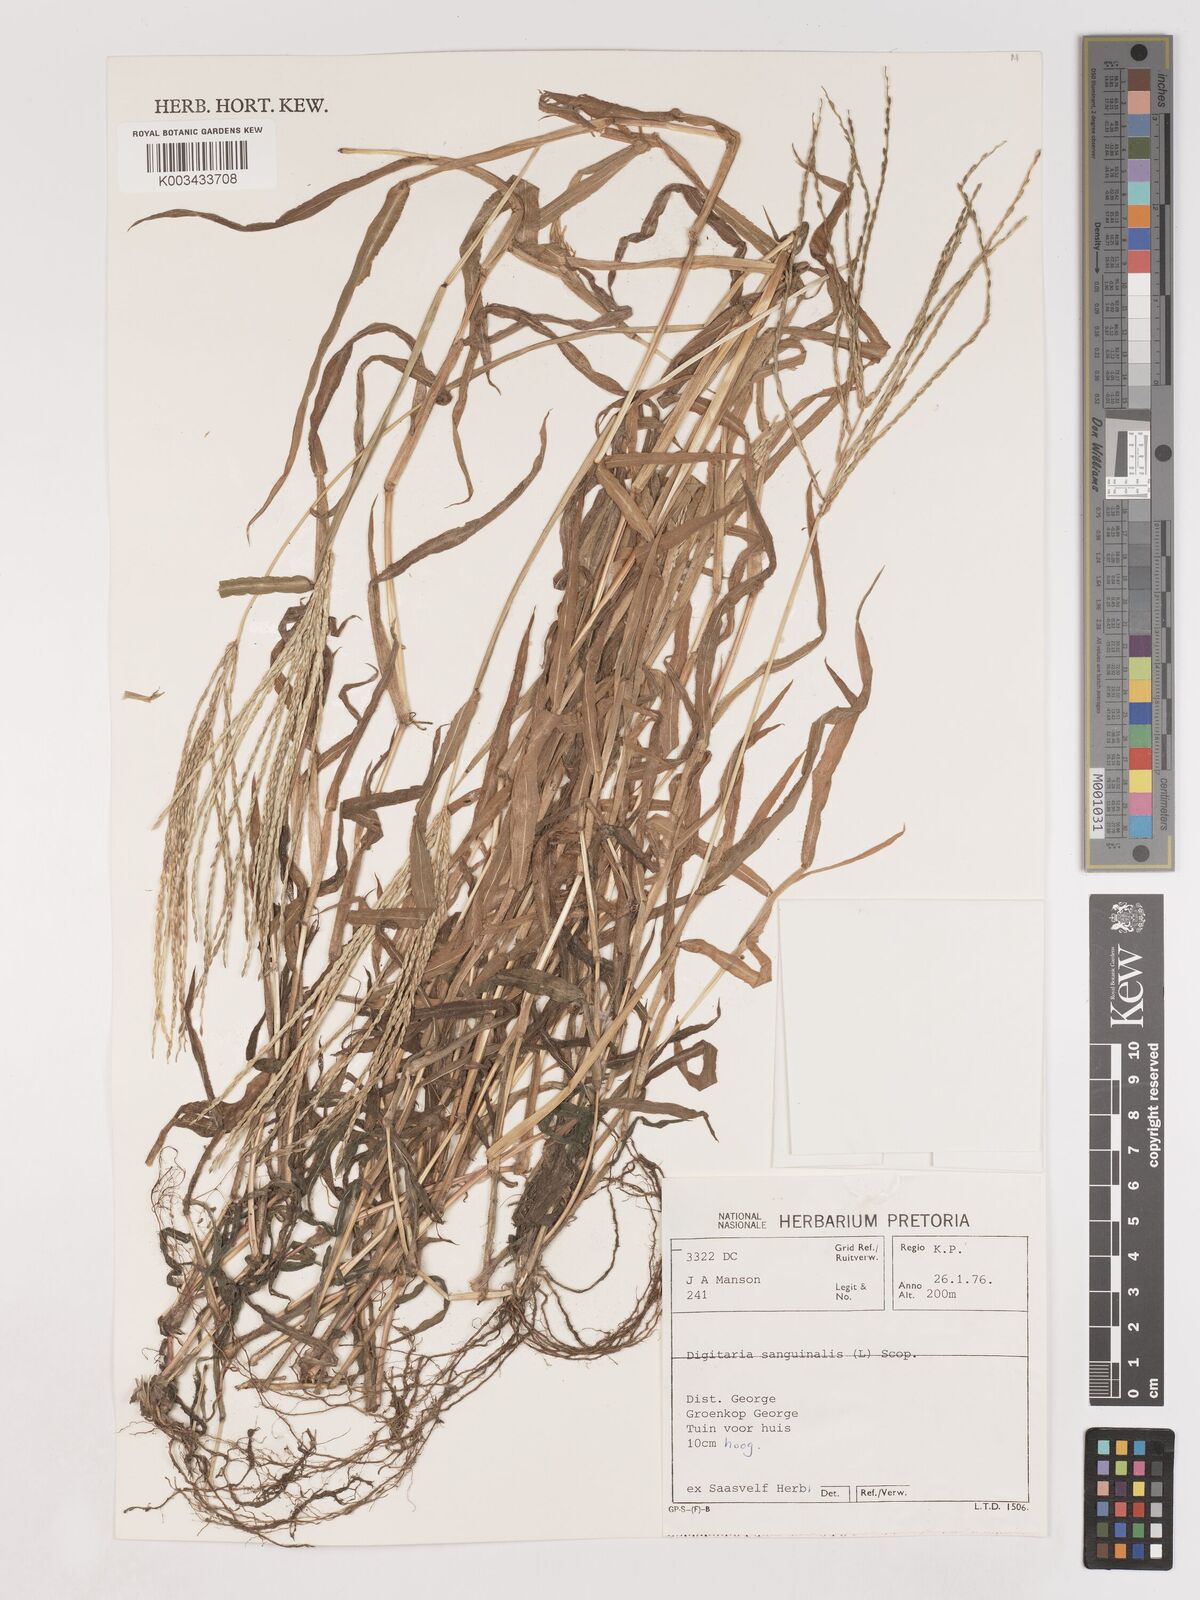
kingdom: Plantae
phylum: Tracheophyta
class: Liliopsida
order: Poales
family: Poaceae
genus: Digitaria
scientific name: Digitaria sanguinalis
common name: Hairy crabgrass
